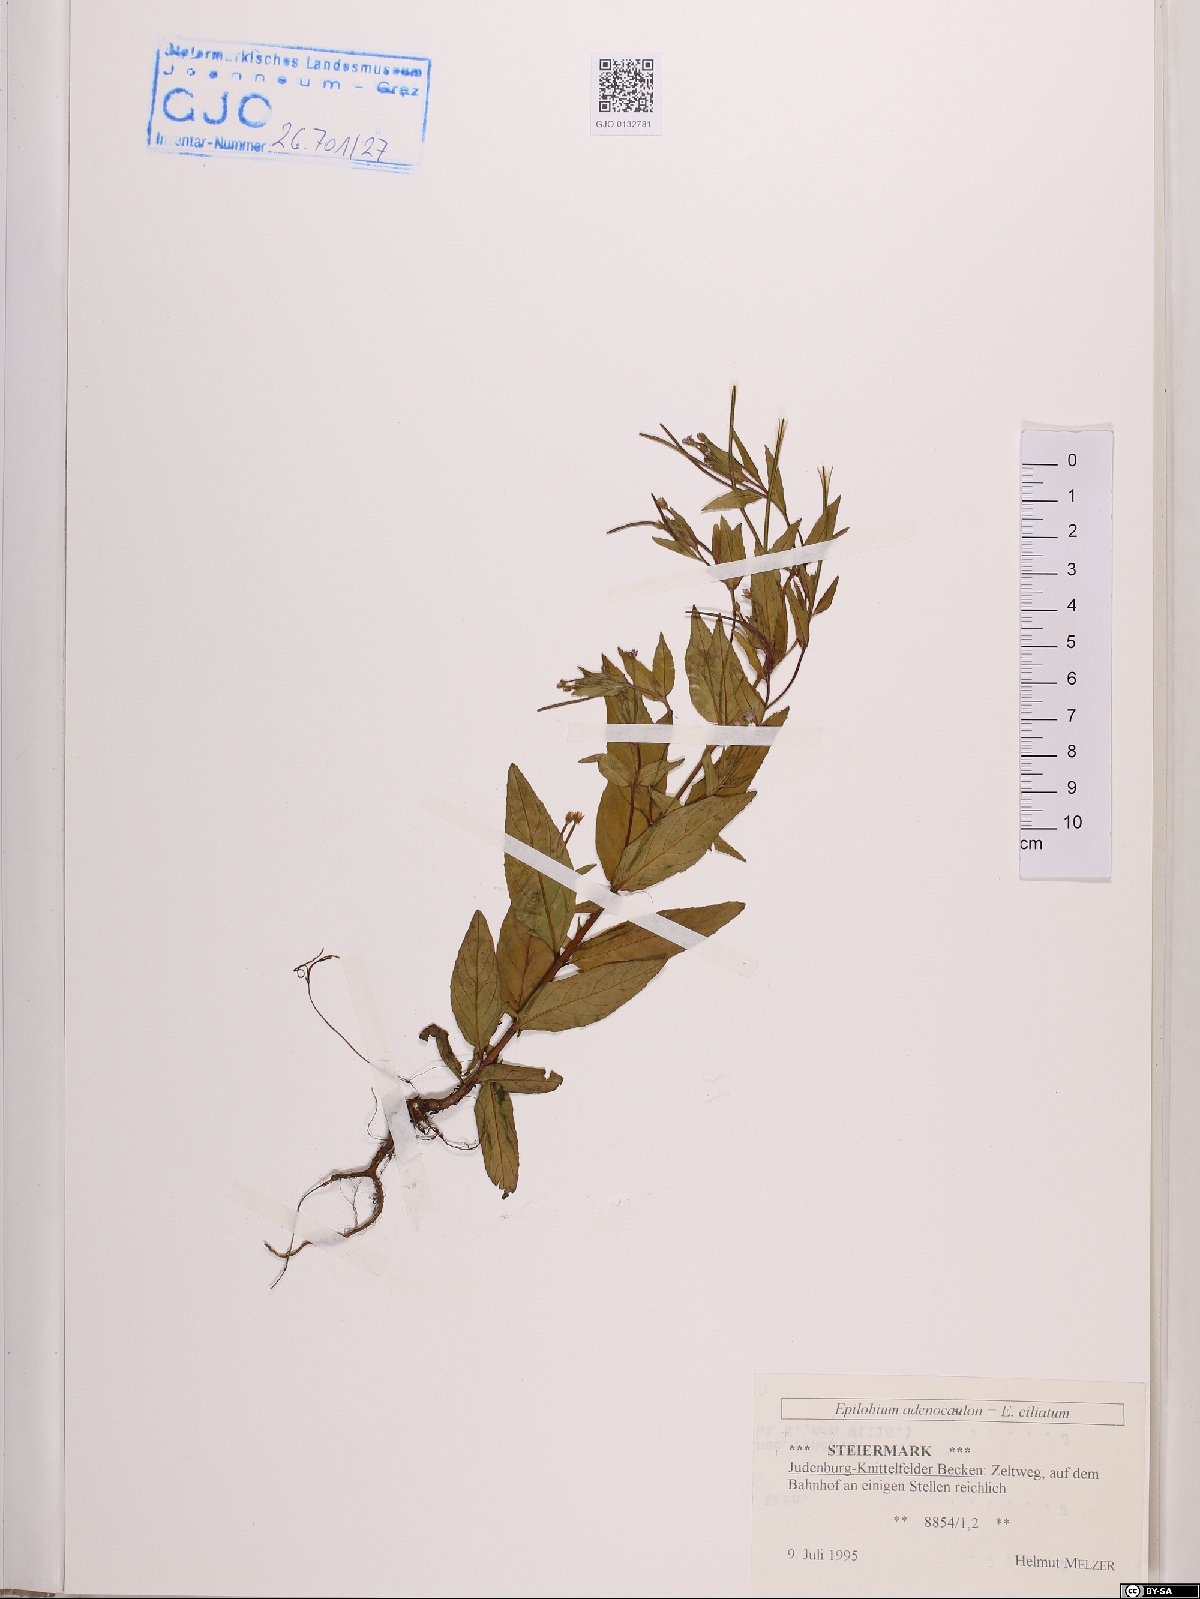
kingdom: Plantae
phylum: Tracheophyta
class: Magnoliopsida
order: Myrtales
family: Onagraceae
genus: Epilobium
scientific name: Epilobium ciliatum
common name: American willowherb
